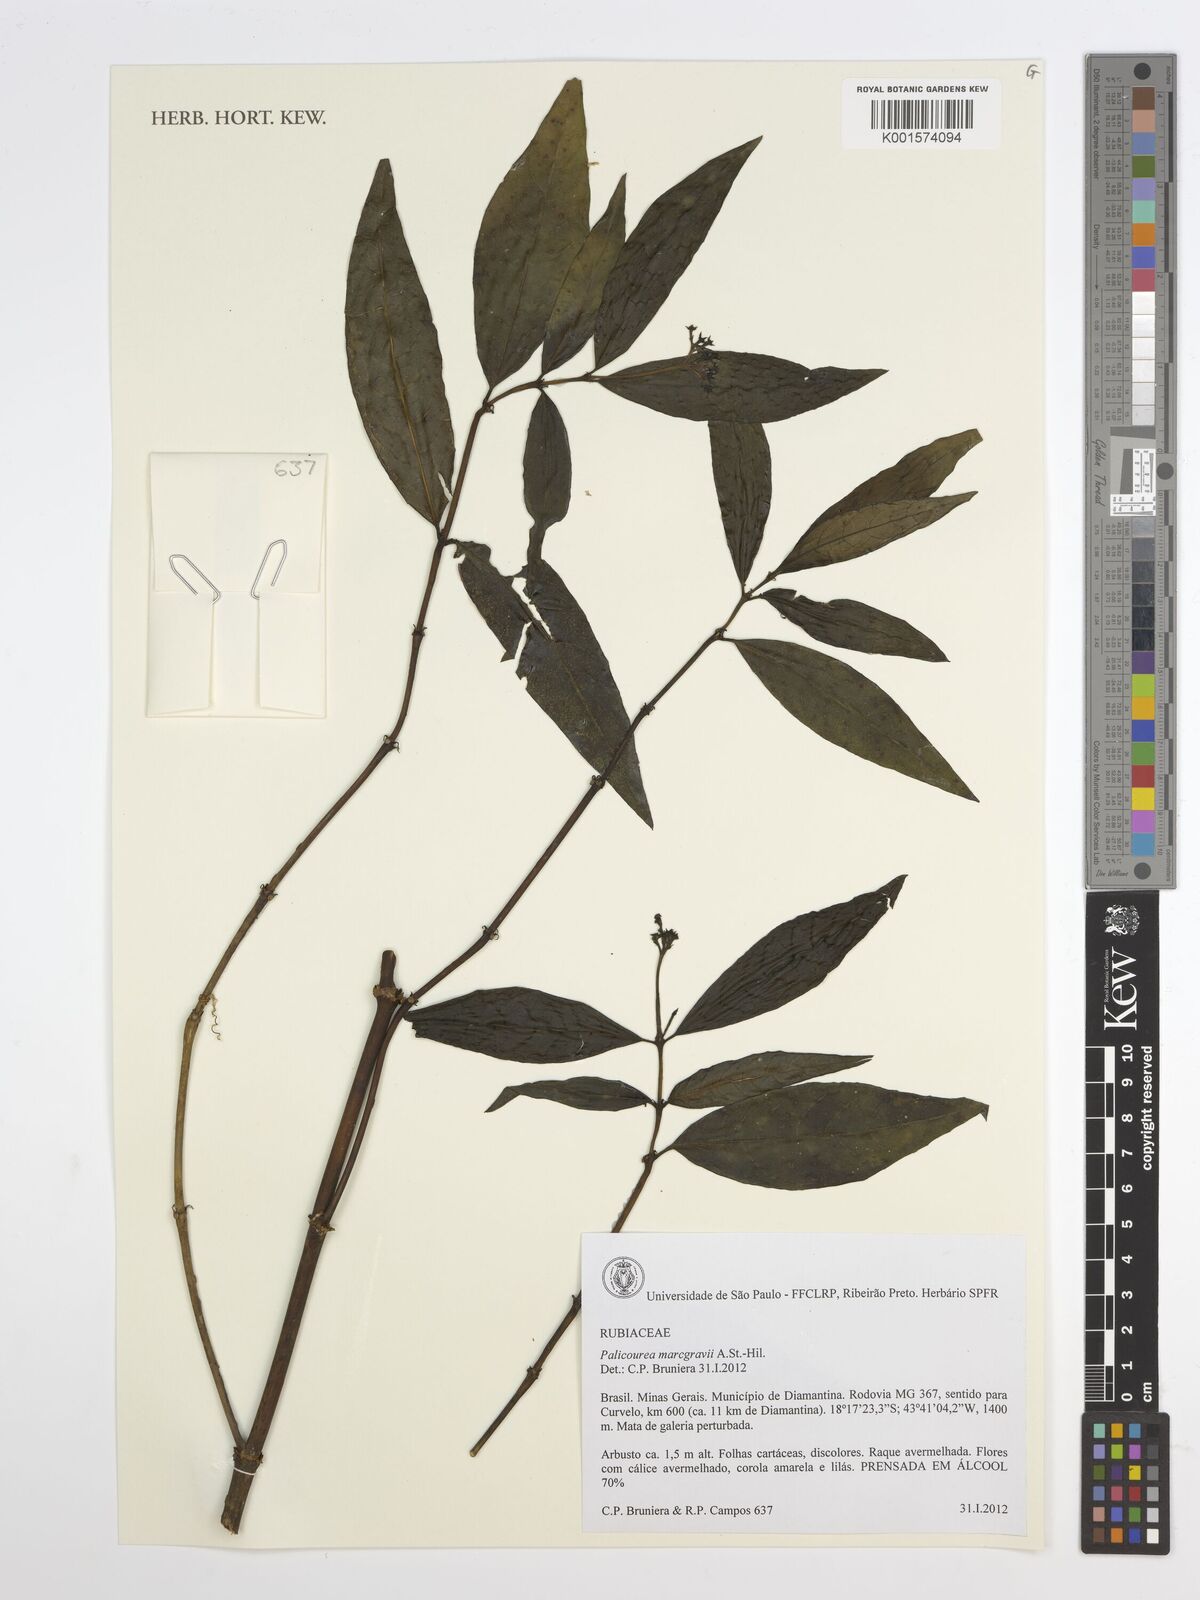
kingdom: Plantae
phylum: Tracheophyta
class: Magnoliopsida
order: Gentianales
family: Rubiaceae
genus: Palicourea
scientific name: Palicourea marcgravii
